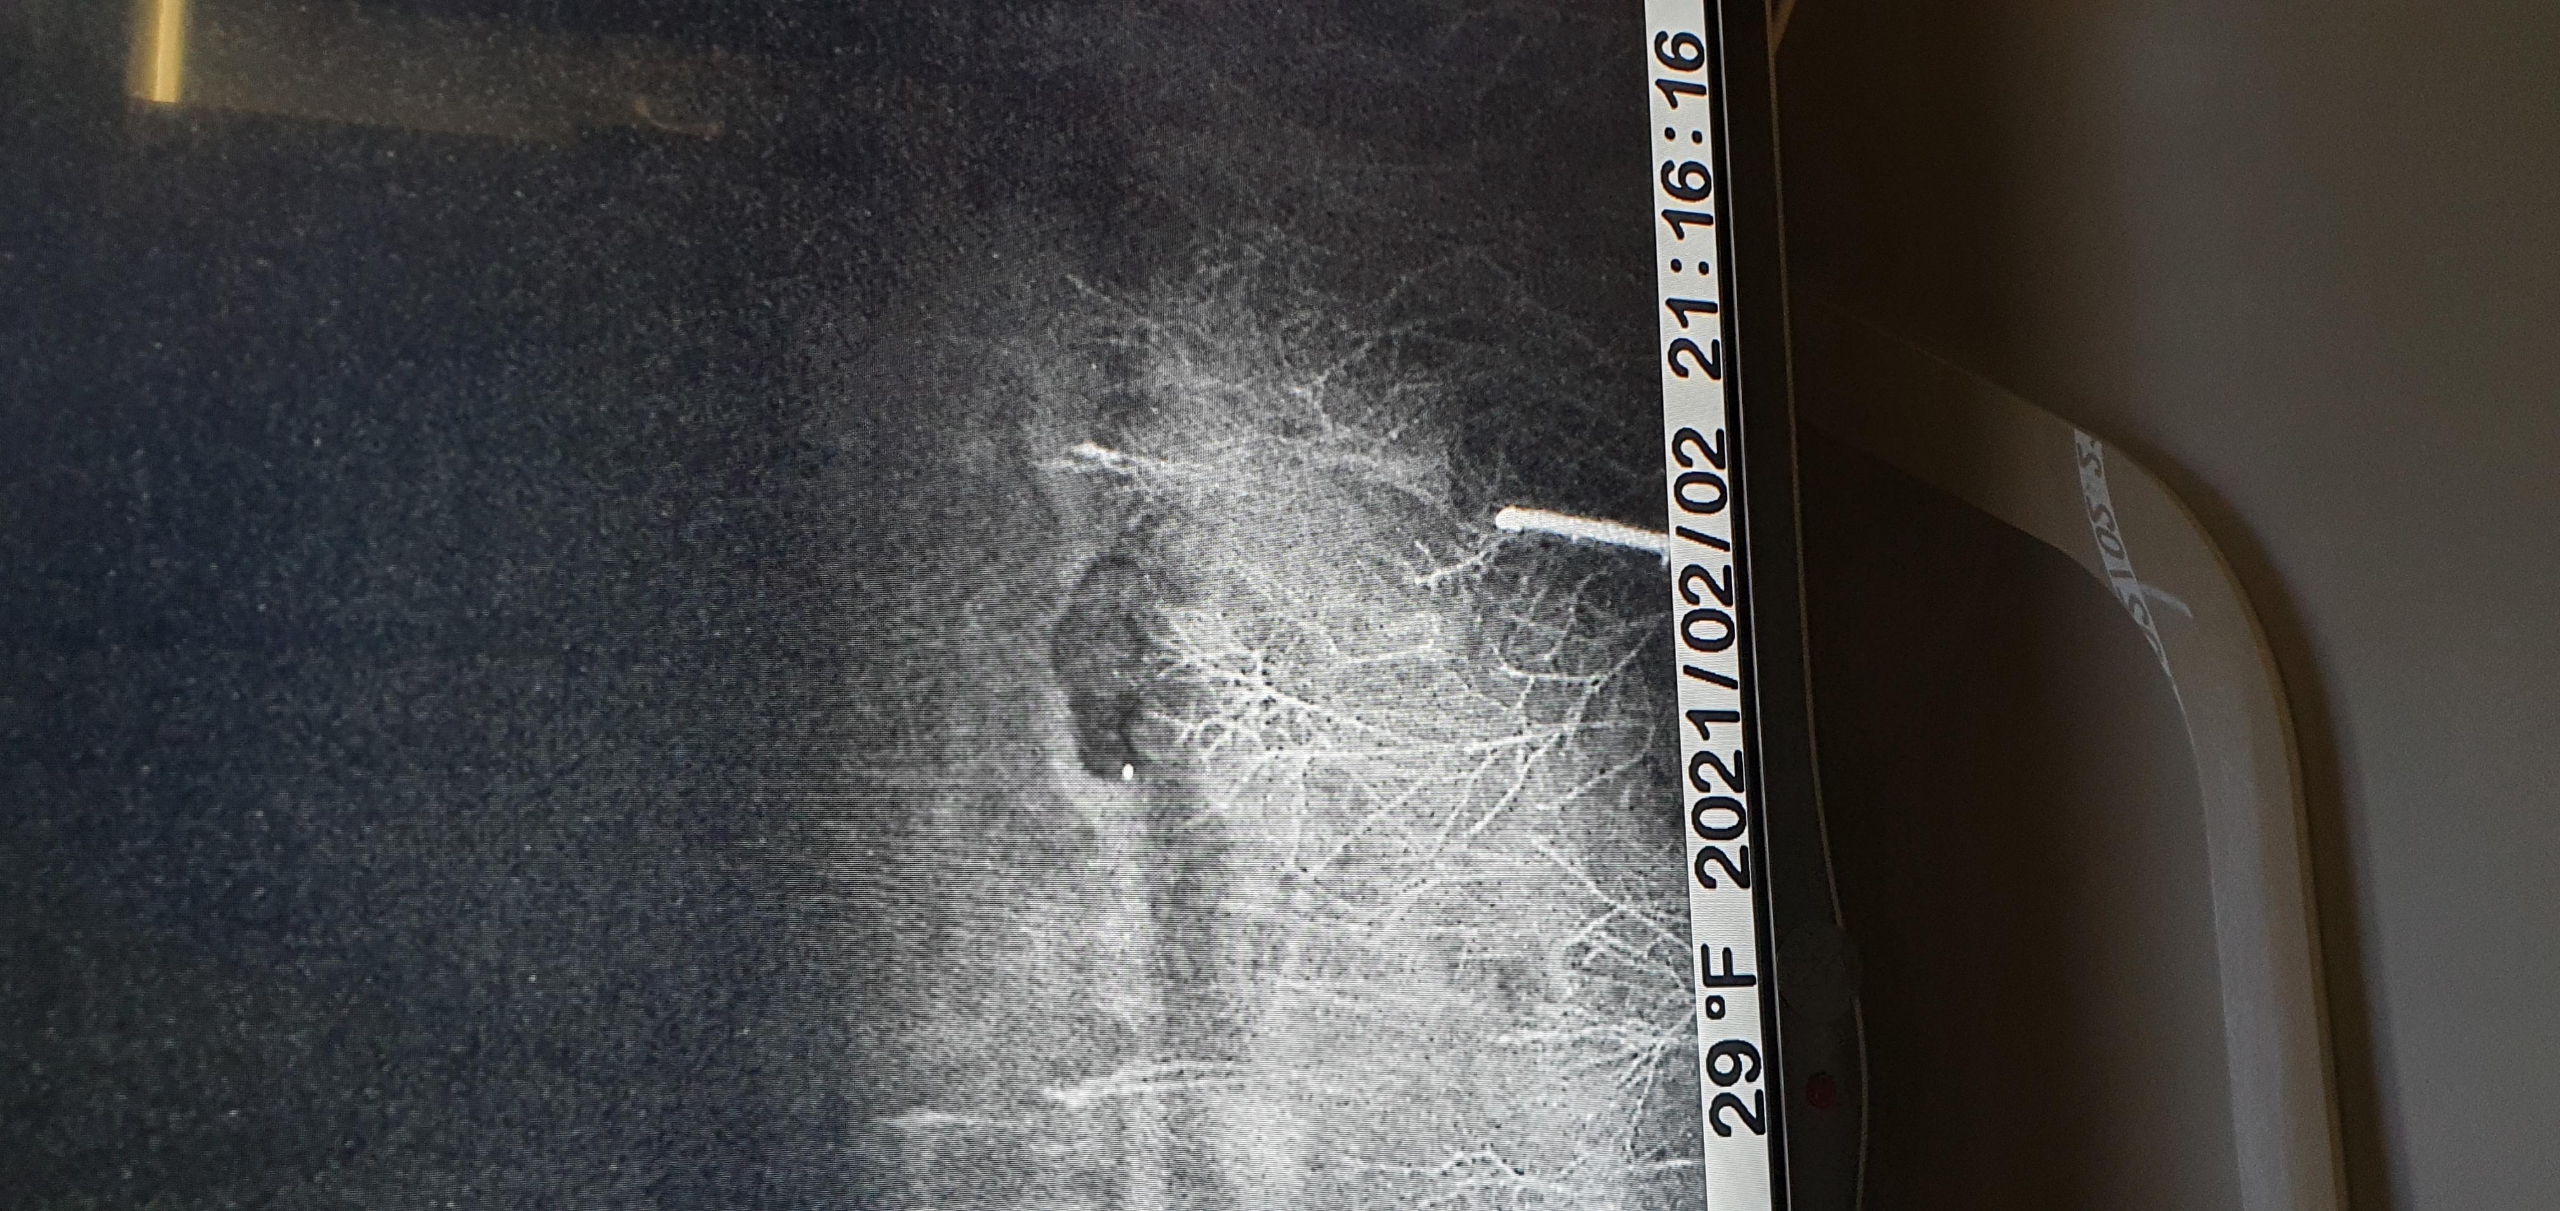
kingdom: Animalia
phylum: Chordata
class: Mammalia
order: Carnivora
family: Canidae
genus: Nyctereutes
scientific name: Nyctereutes procyonoides
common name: Mårhund
